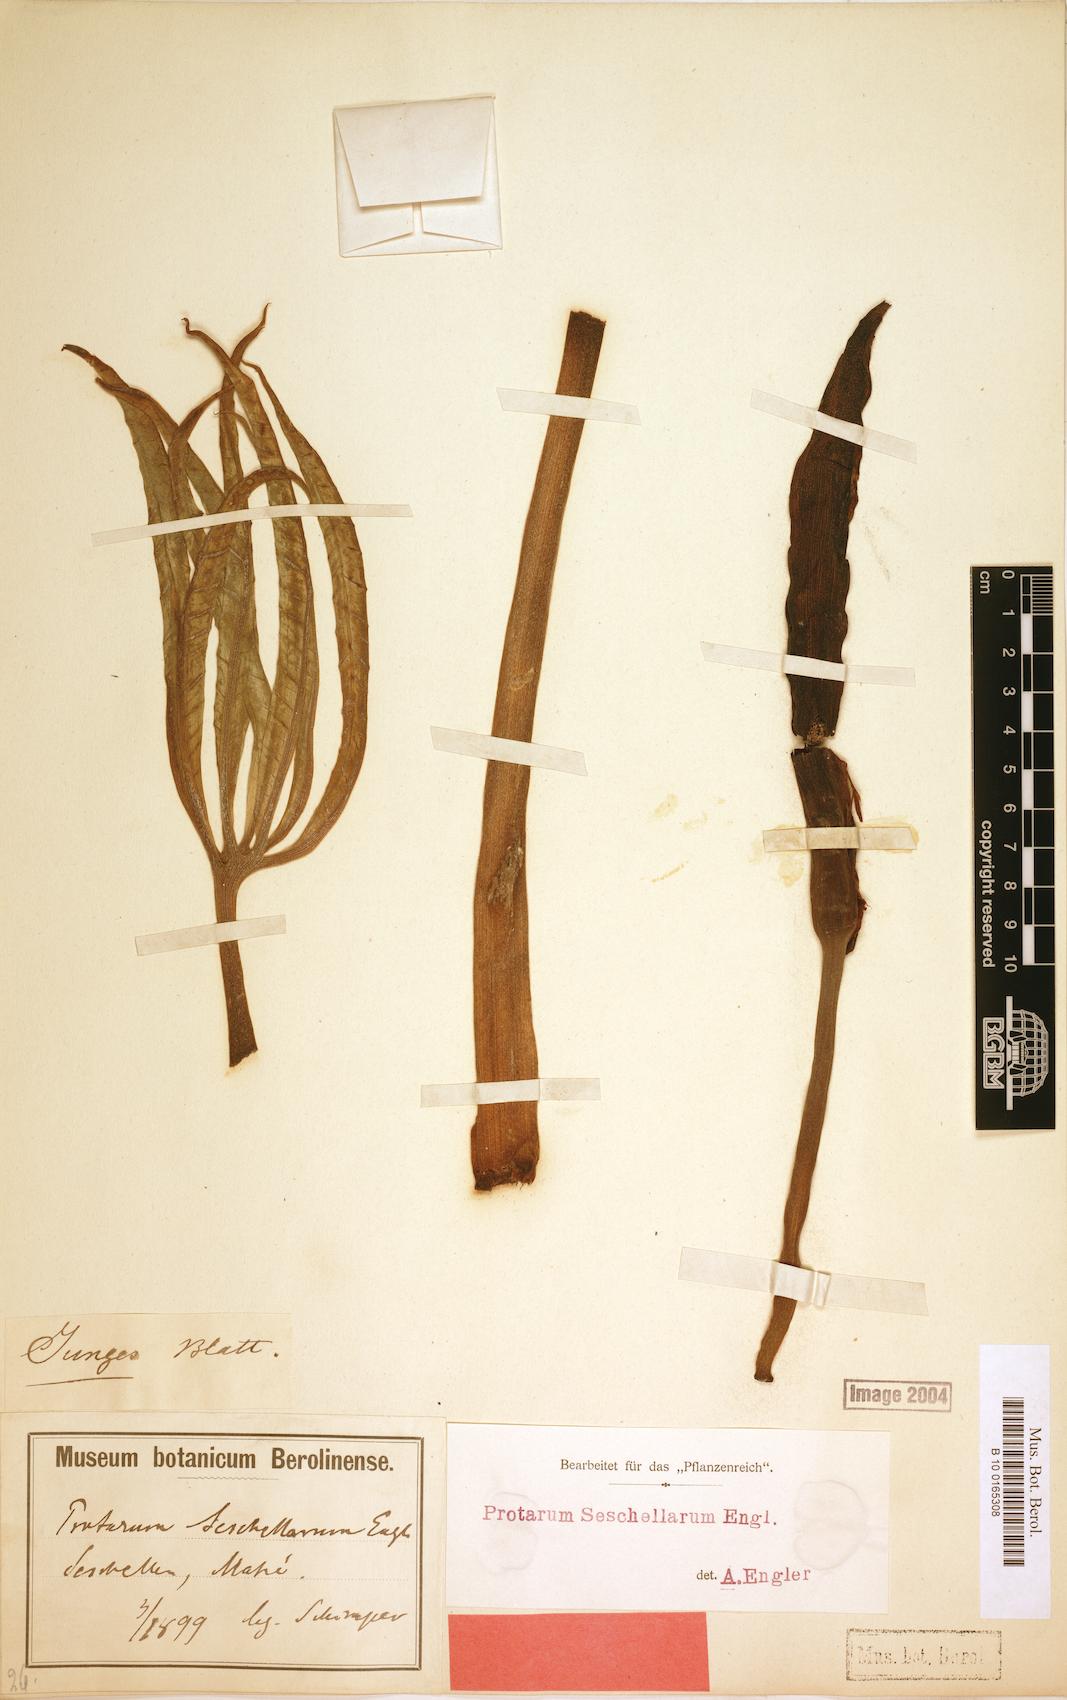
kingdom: Plantae
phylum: Tracheophyta
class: Liliopsida
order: Alismatales
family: Araceae
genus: Protarum
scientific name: Protarum sechellarum
